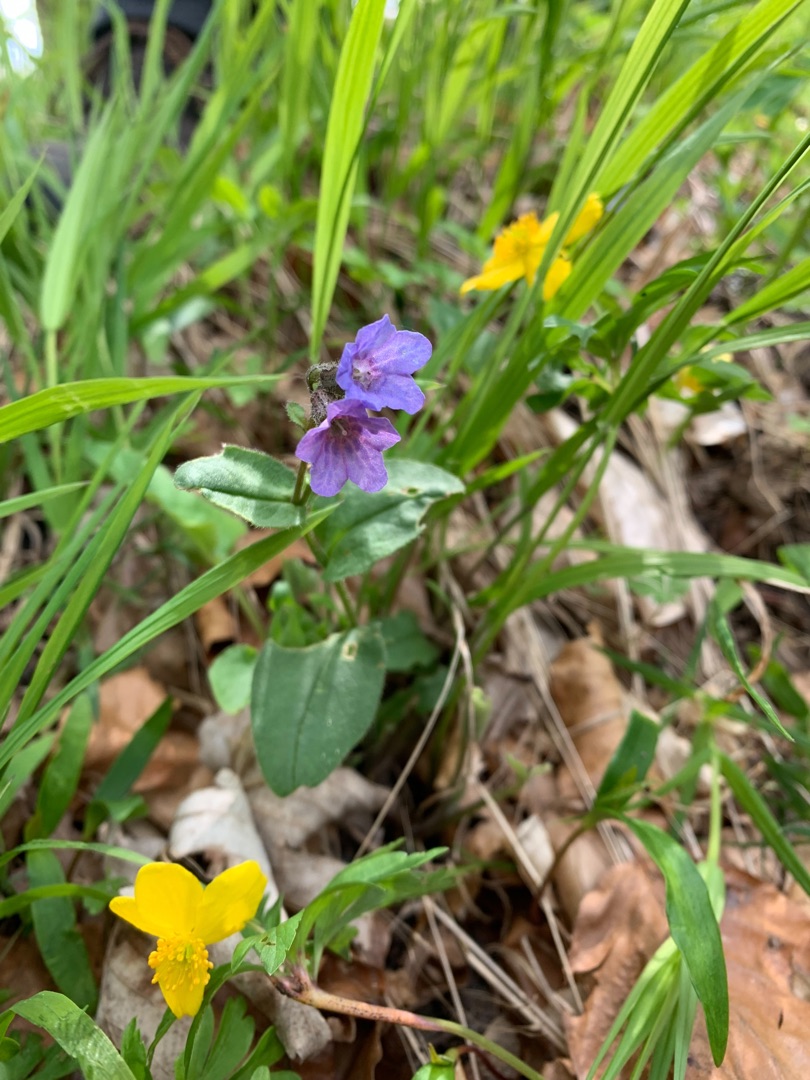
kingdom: Plantae
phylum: Tracheophyta
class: Magnoliopsida
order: Boraginales
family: Boraginaceae
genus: Pulmonaria
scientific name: Pulmonaria obscura
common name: Almindelig lungeurt
